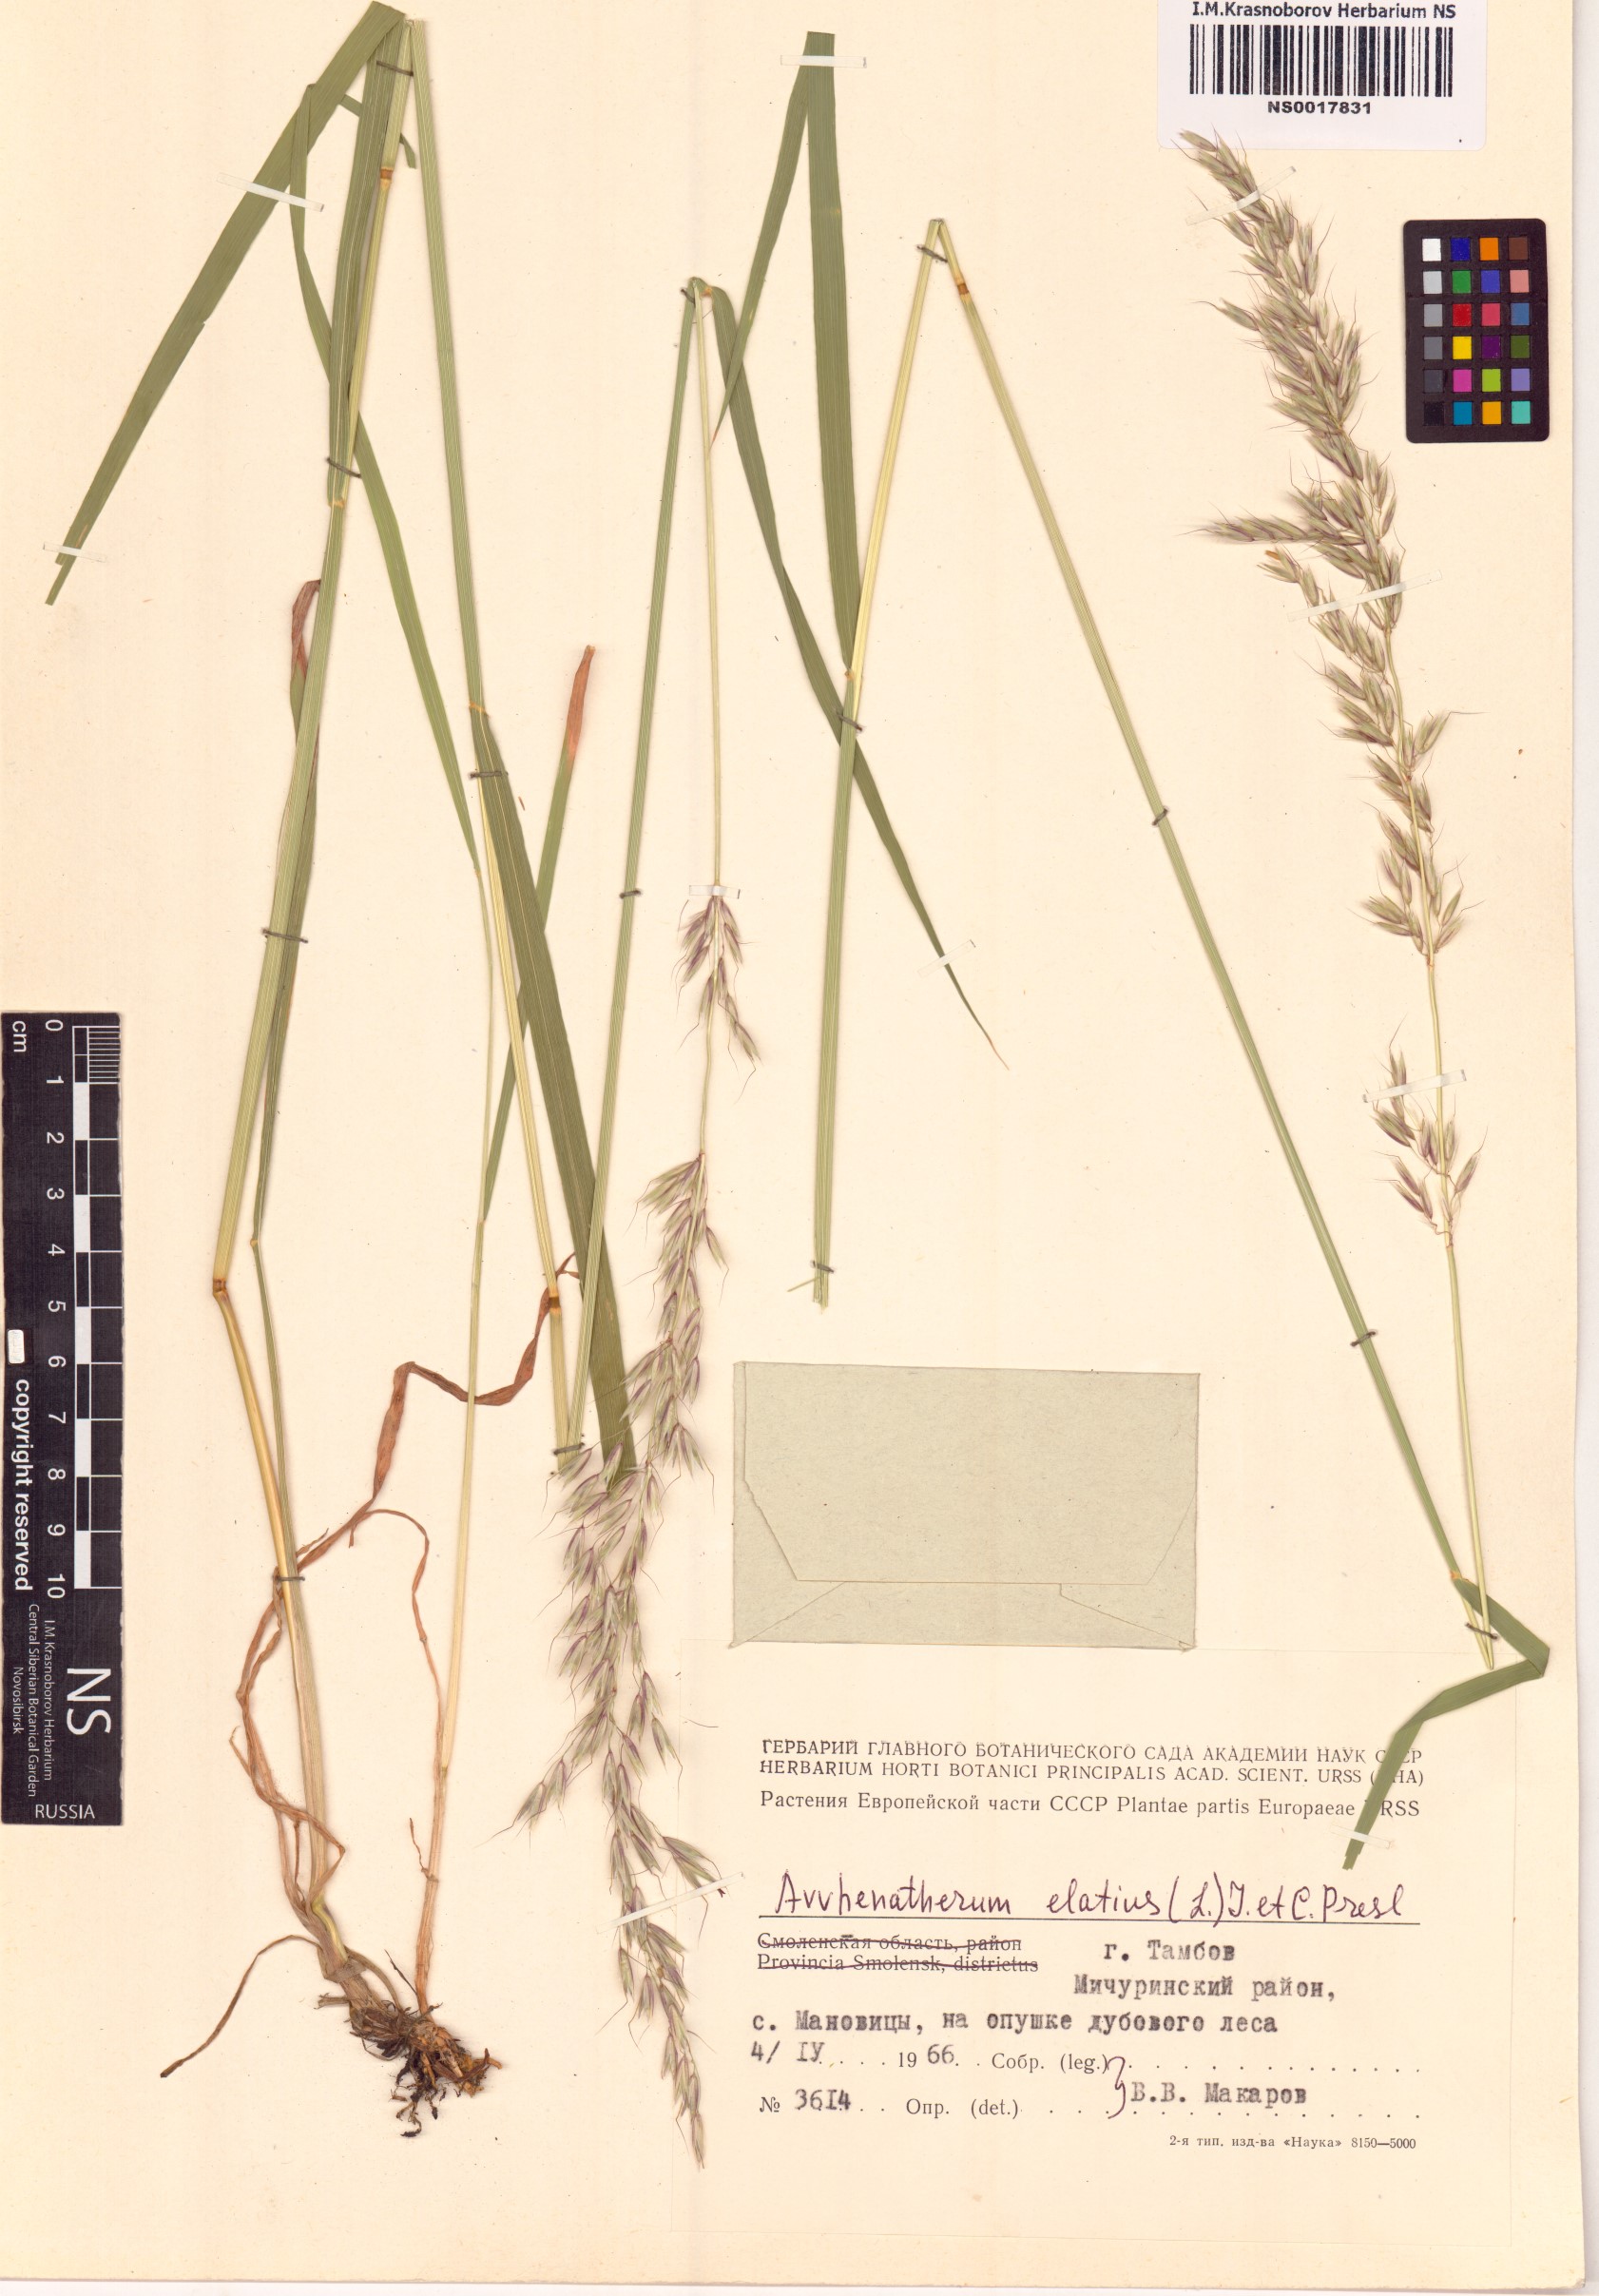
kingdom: Plantae
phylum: Tracheophyta
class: Liliopsida
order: Poales
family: Poaceae
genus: Arrhenatherum
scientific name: Arrhenatherum elatius
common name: Tall oatgrass
